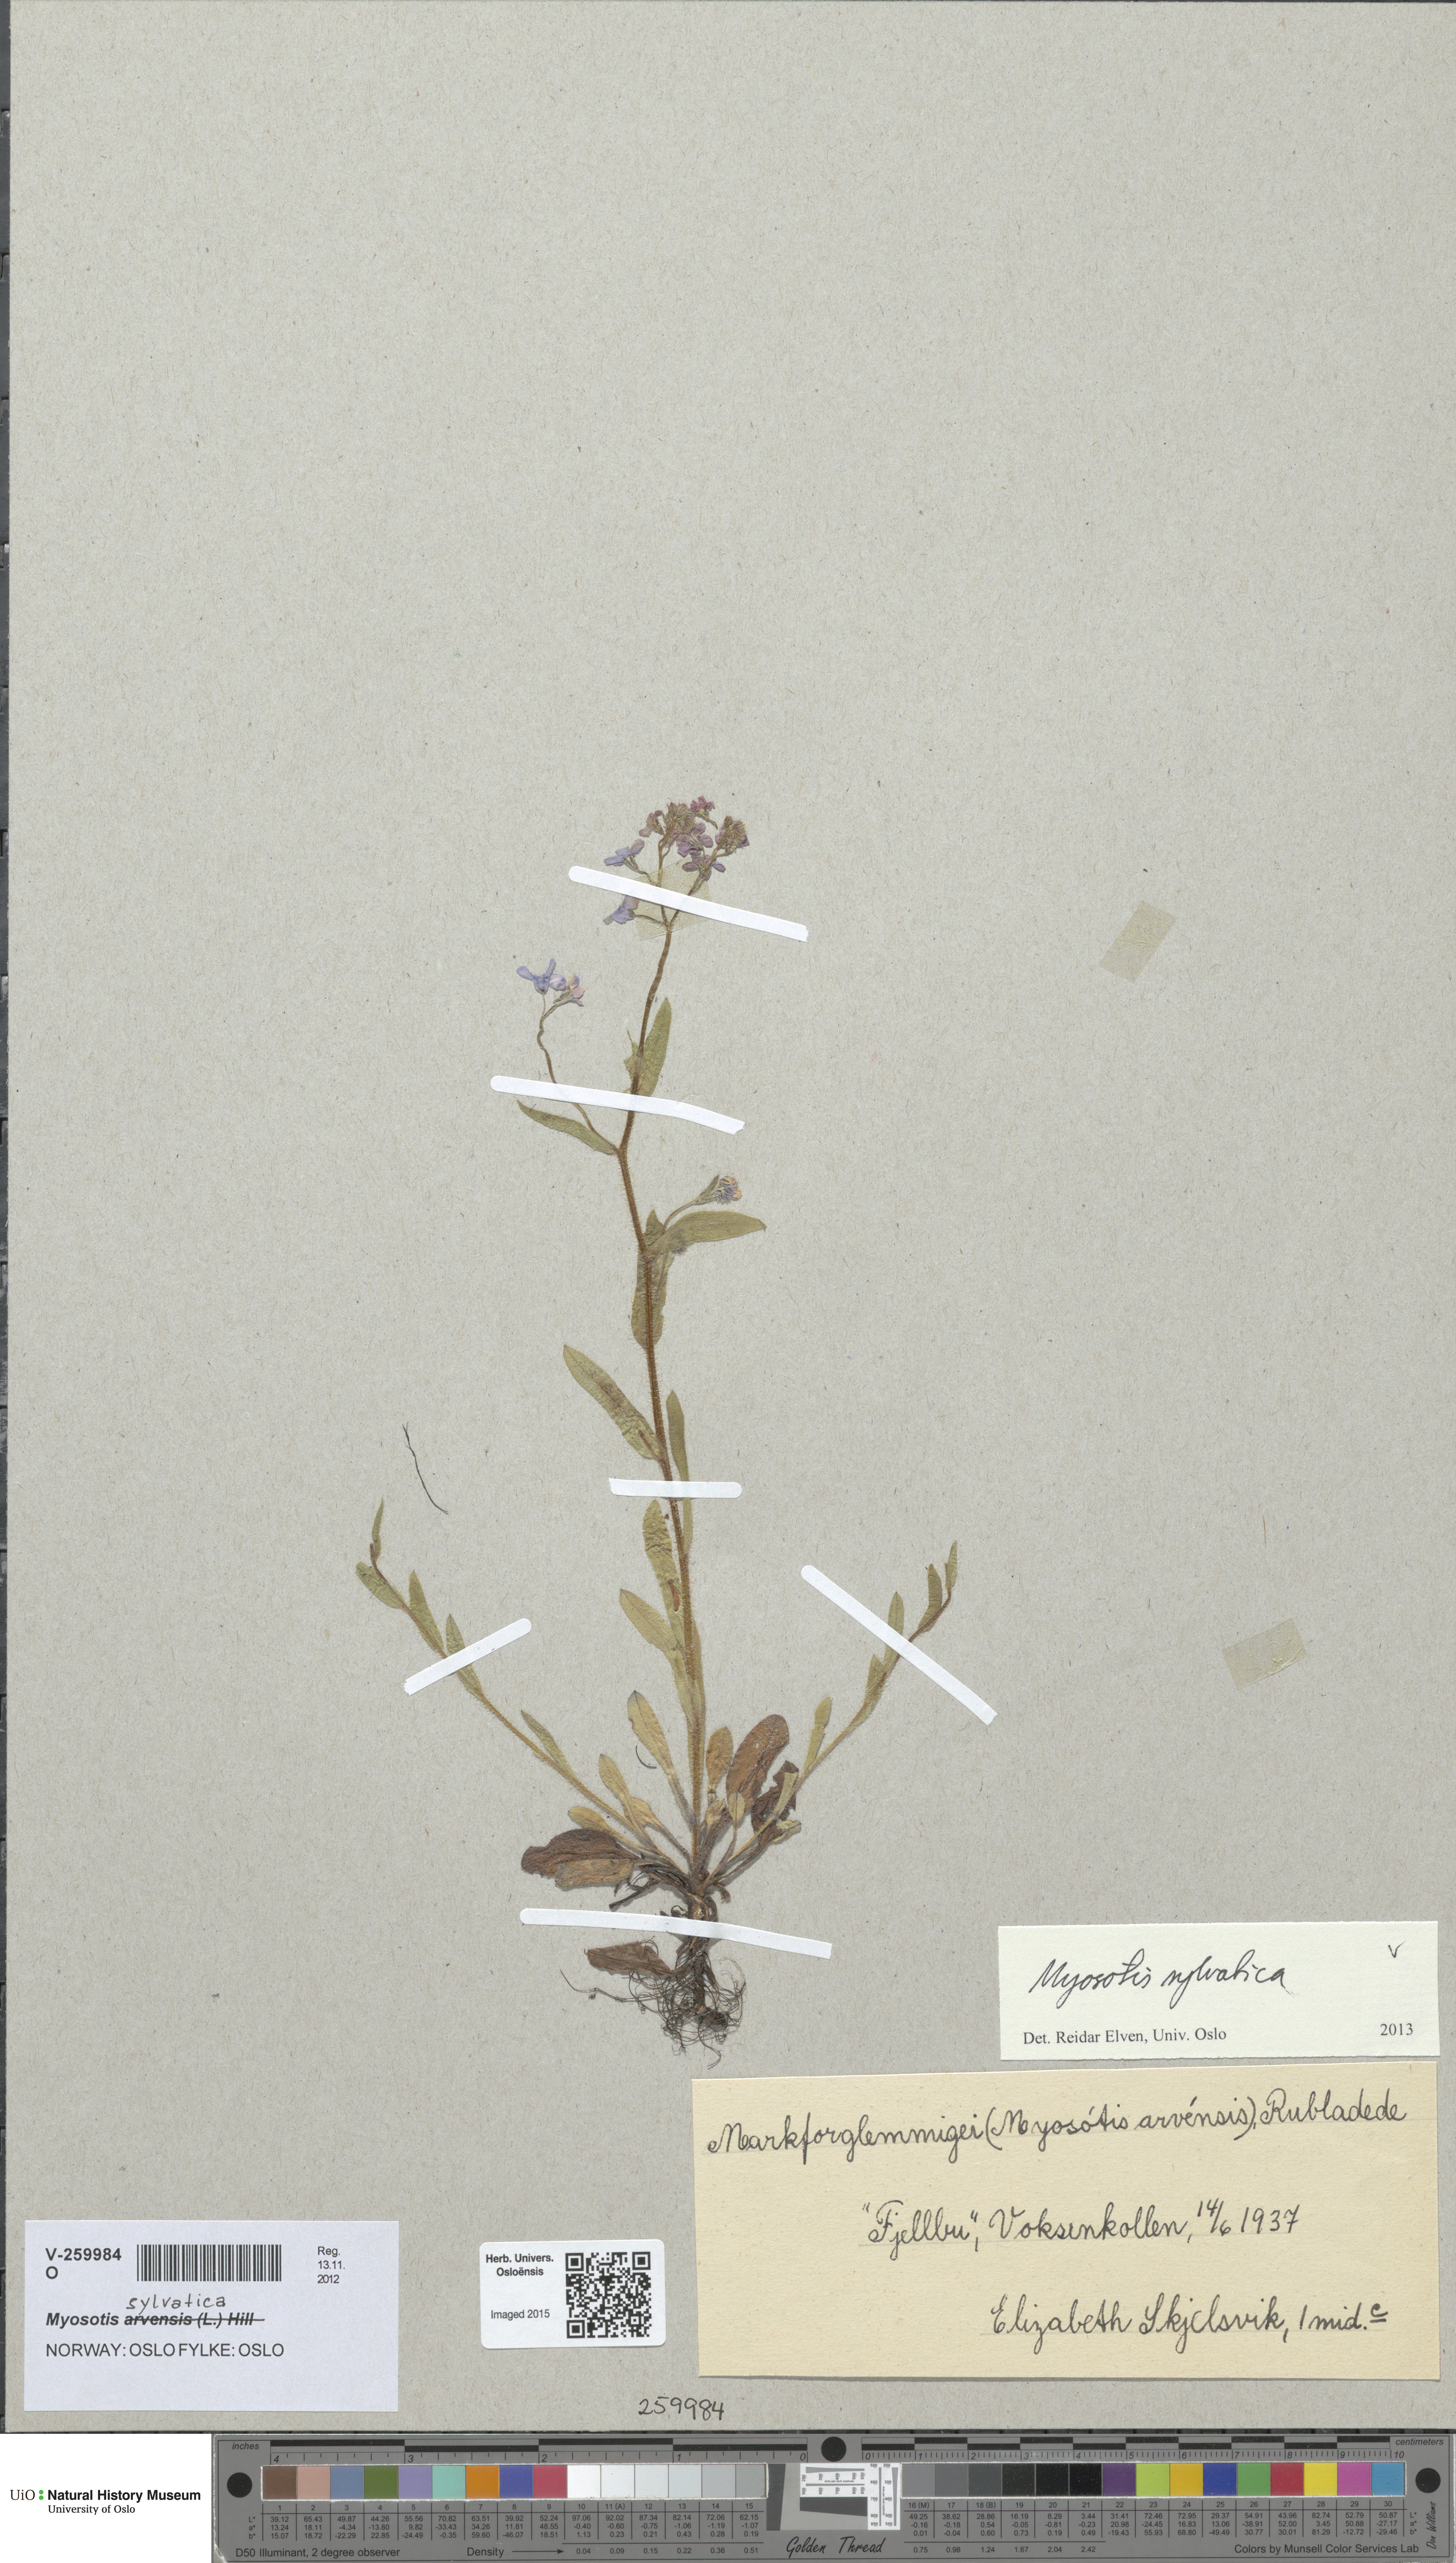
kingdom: Plantae
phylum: Tracheophyta
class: Magnoliopsida
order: Boraginales
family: Boraginaceae
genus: Myosotis
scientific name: Myosotis sylvatica
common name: Wood forget-me-not
